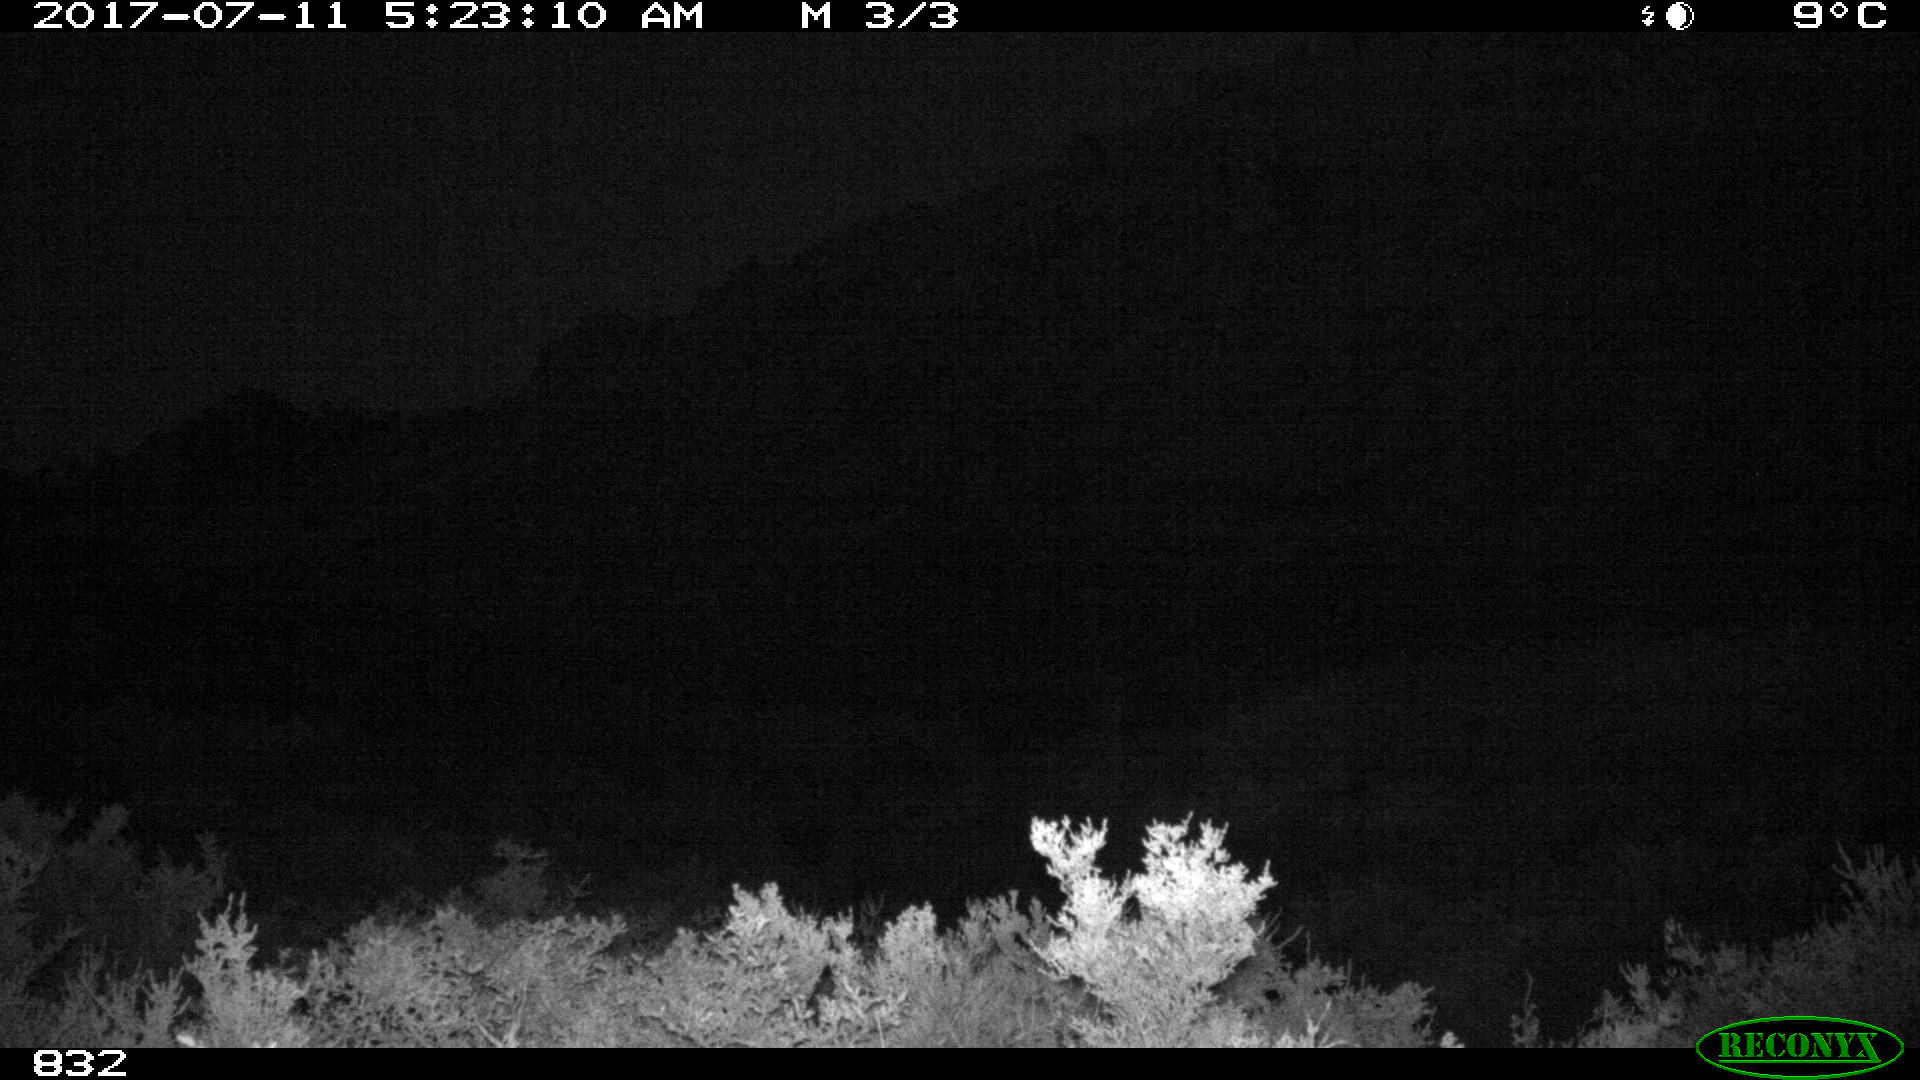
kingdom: Animalia
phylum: Chordata
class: Mammalia
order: Artiodactyla
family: Cervidae
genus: Capreolus
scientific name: Capreolus capreolus
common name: Western roe deer
